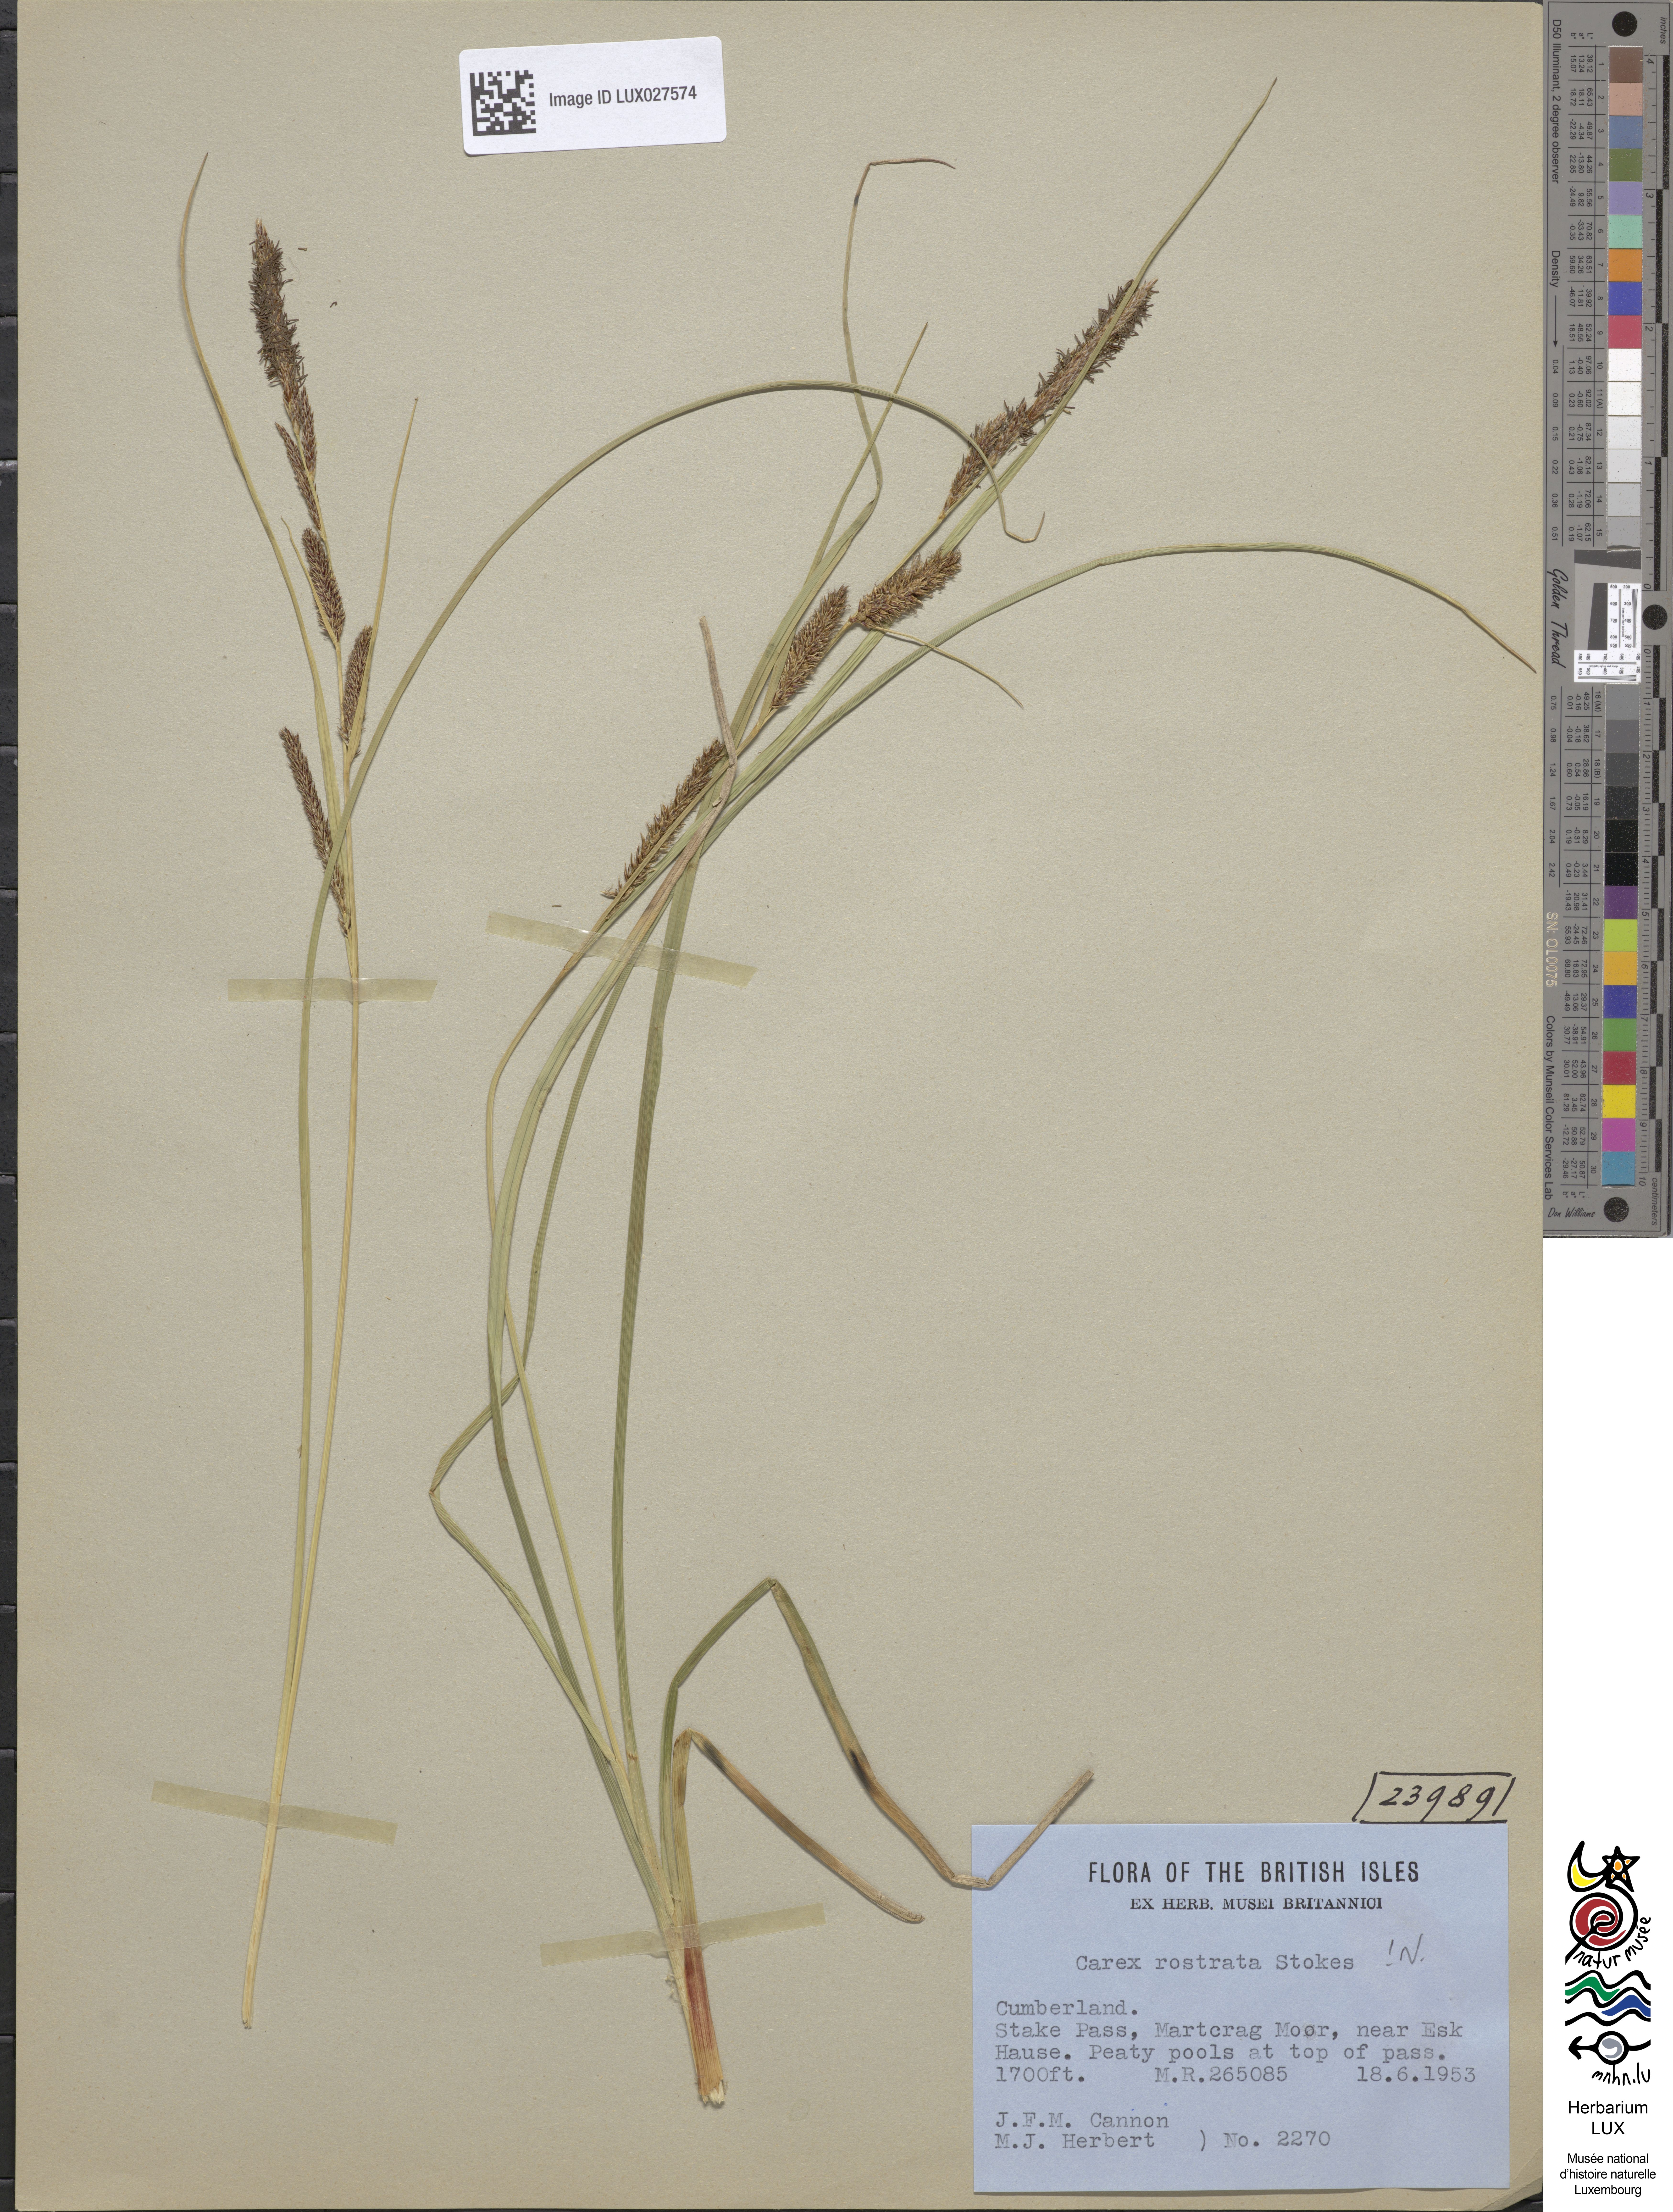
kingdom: Plantae
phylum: Tracheophyta
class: Liliopsida
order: Poales
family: Cyperaceae
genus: Carex
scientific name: Carex rostrata
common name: Bottle sedge
